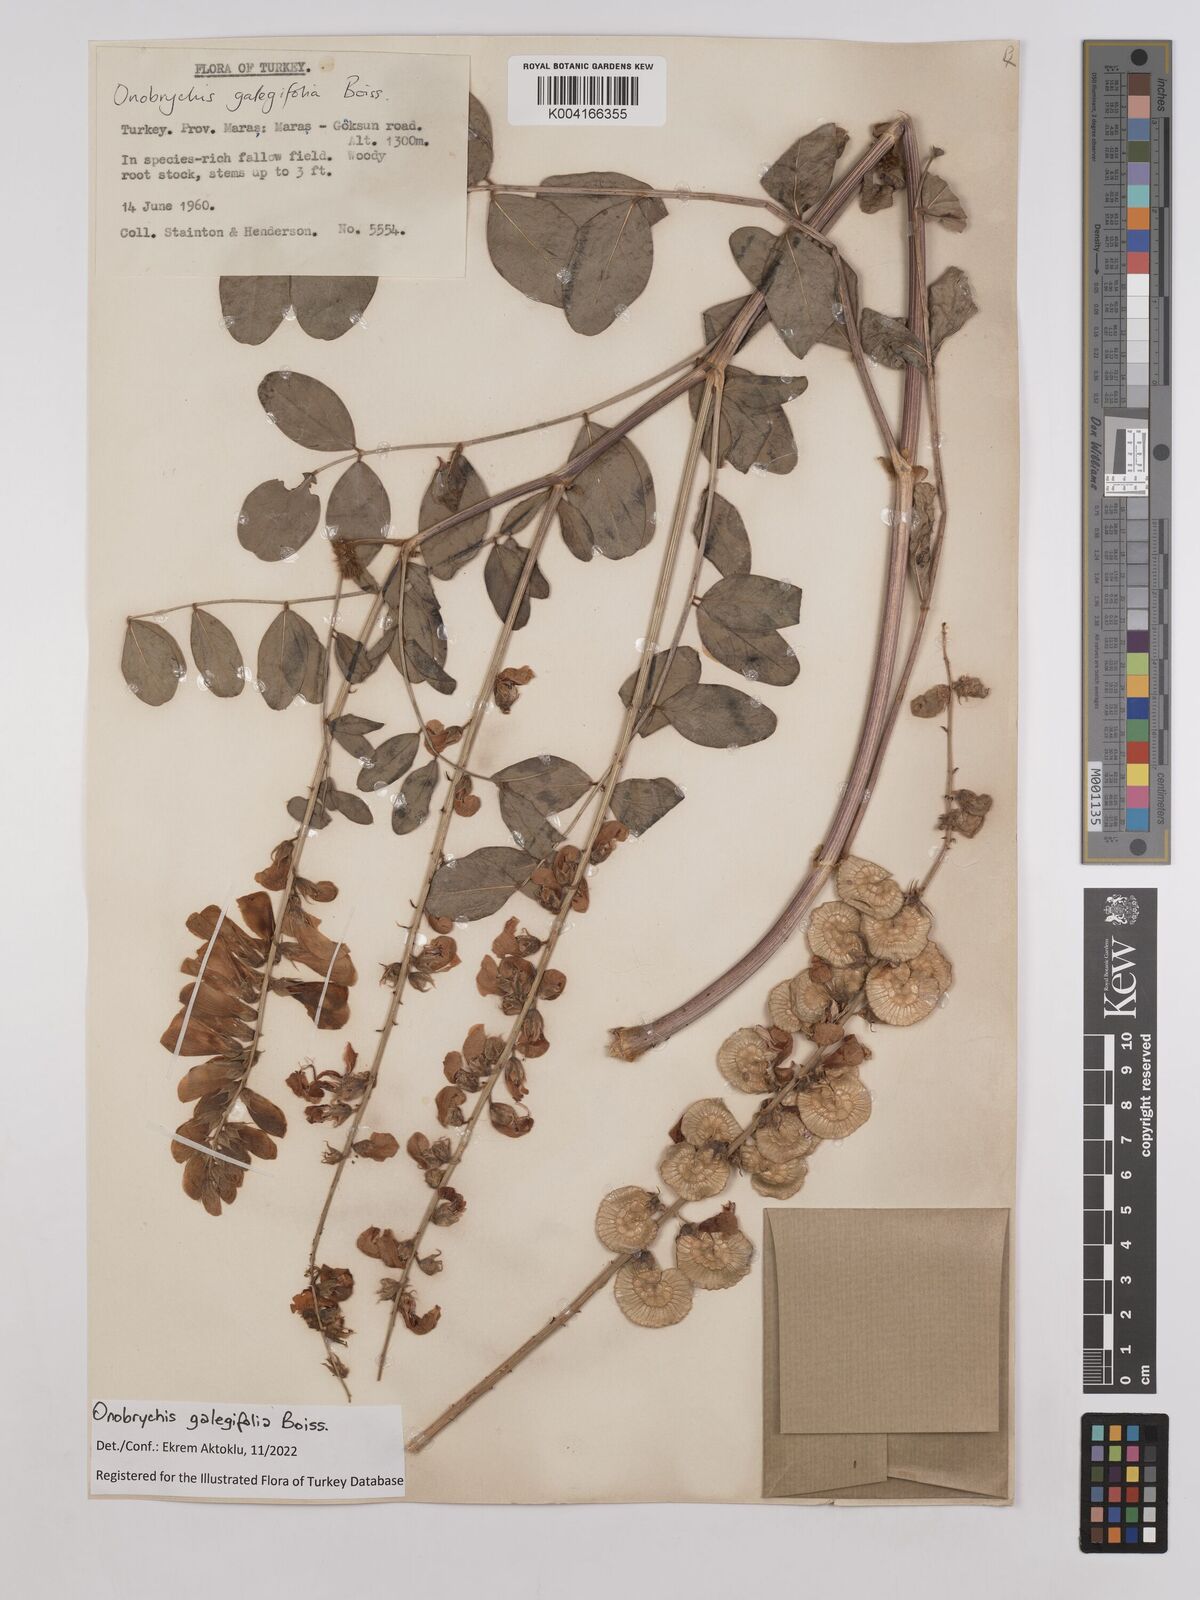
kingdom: Plantae
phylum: Tracheophyta
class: Magnoliopsida
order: Fabales
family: Fabaceae
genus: Onobrychis
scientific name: Onobrychis galegifolia
